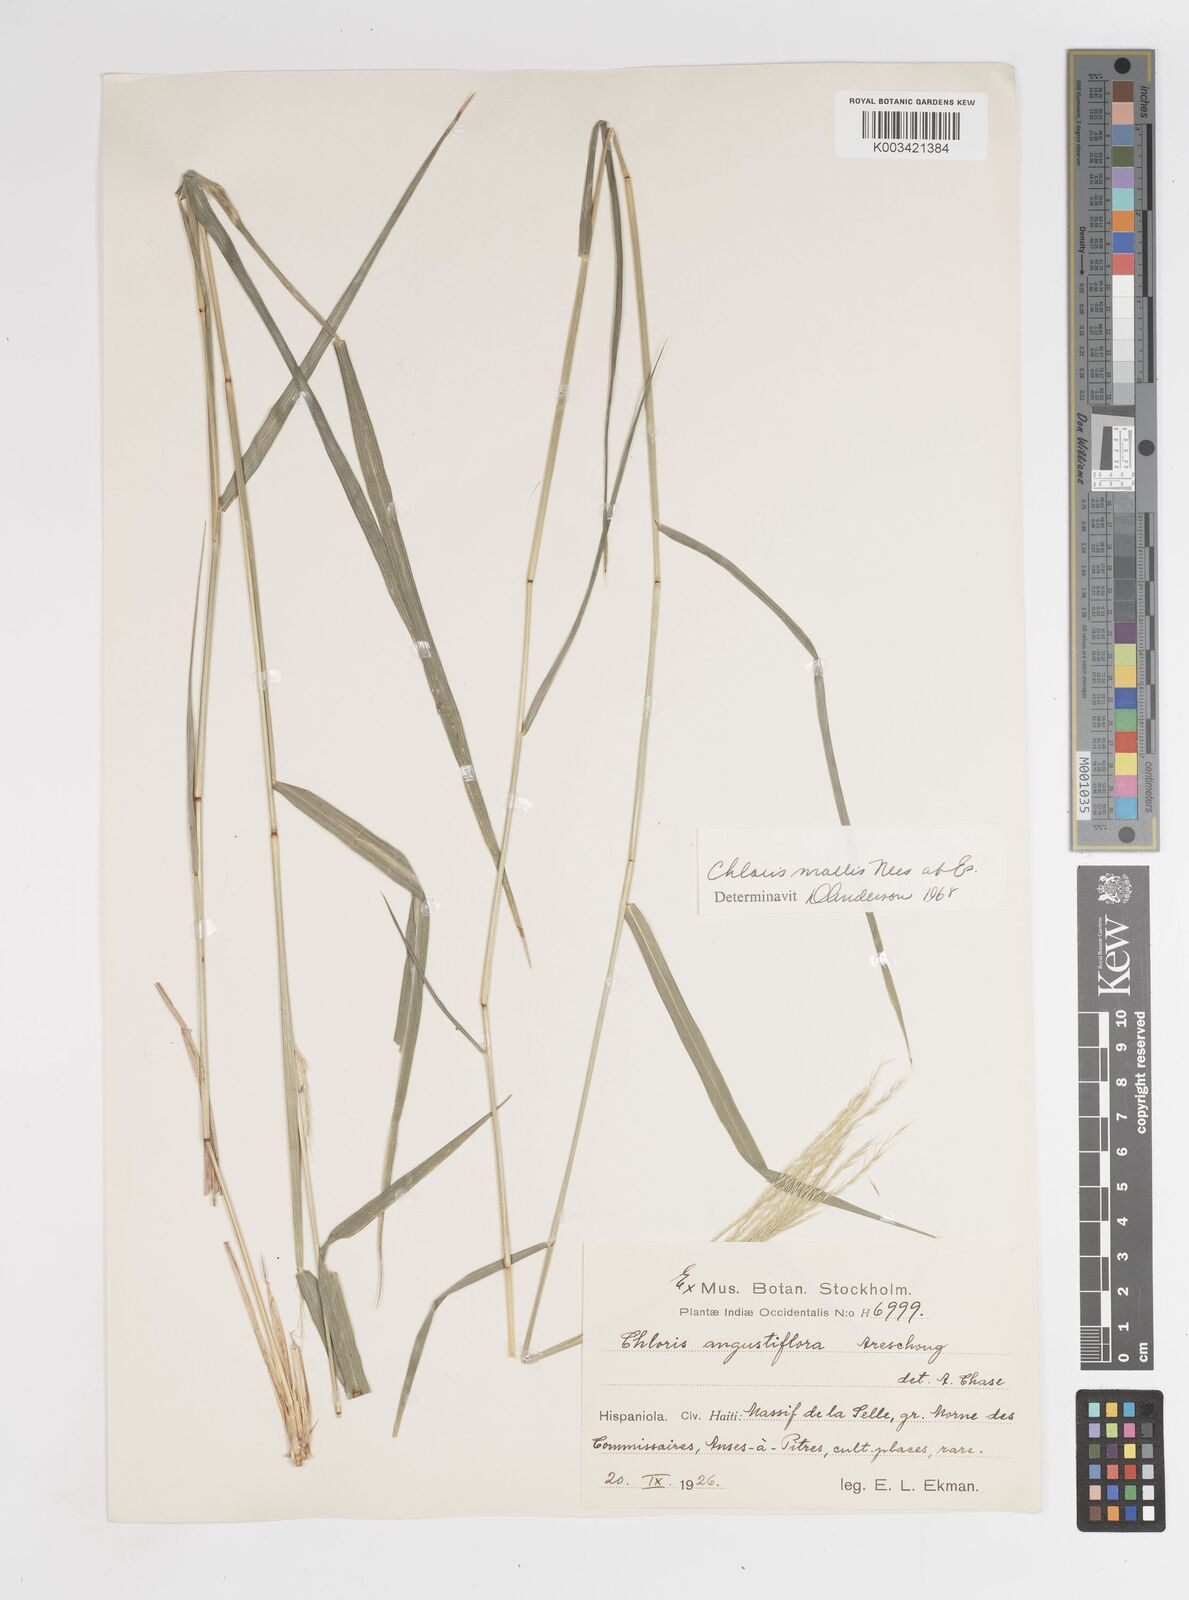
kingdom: Plantae
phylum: Tracheophyta
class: Liliopsida
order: Poales
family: Poaceae
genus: Leptochloa
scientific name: Leptochloa anisopoda
